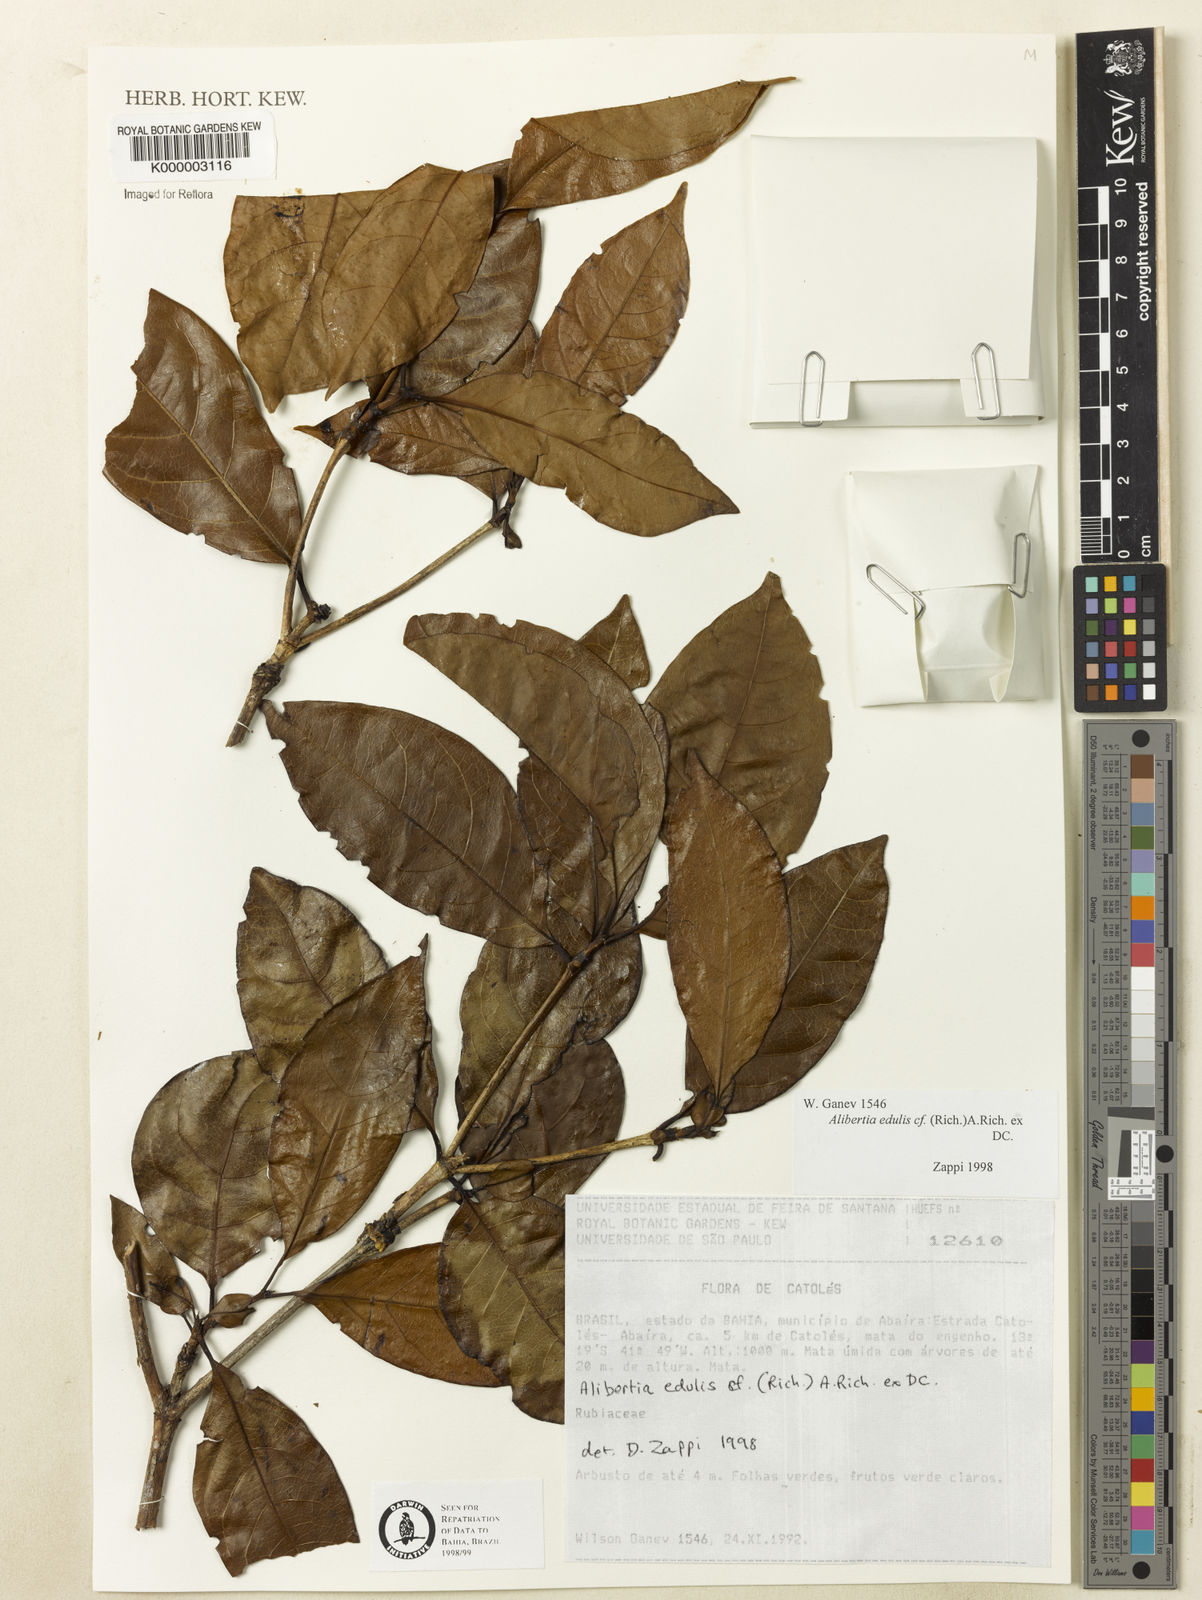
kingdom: Plantae
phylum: Tracheophyta
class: Magnoliopsida
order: Gentianales
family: Rubiaceae
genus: Alibertia
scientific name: Alibertia edulis
